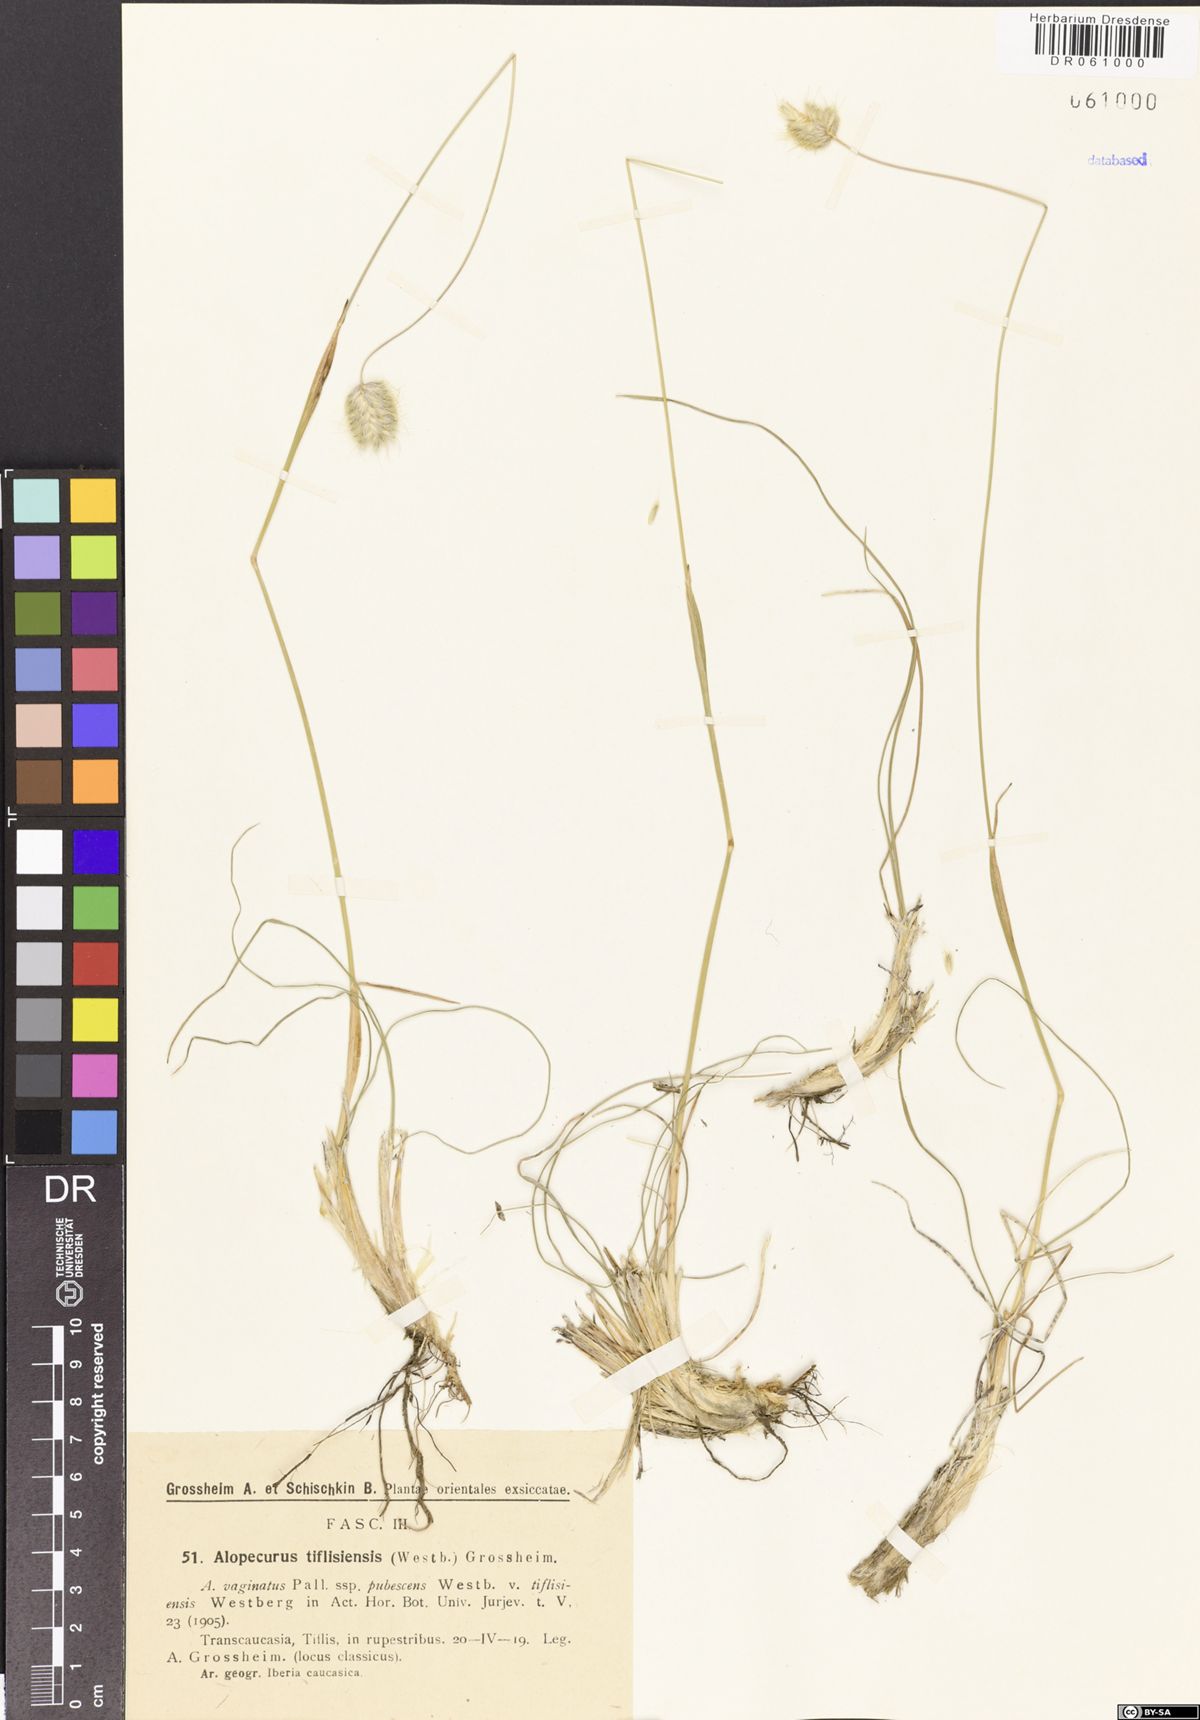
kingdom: Plantae
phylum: Tracheophyta
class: Liliopsida
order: Poales
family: Poaceae
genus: Alopecurus
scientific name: Alopecurus textilis
